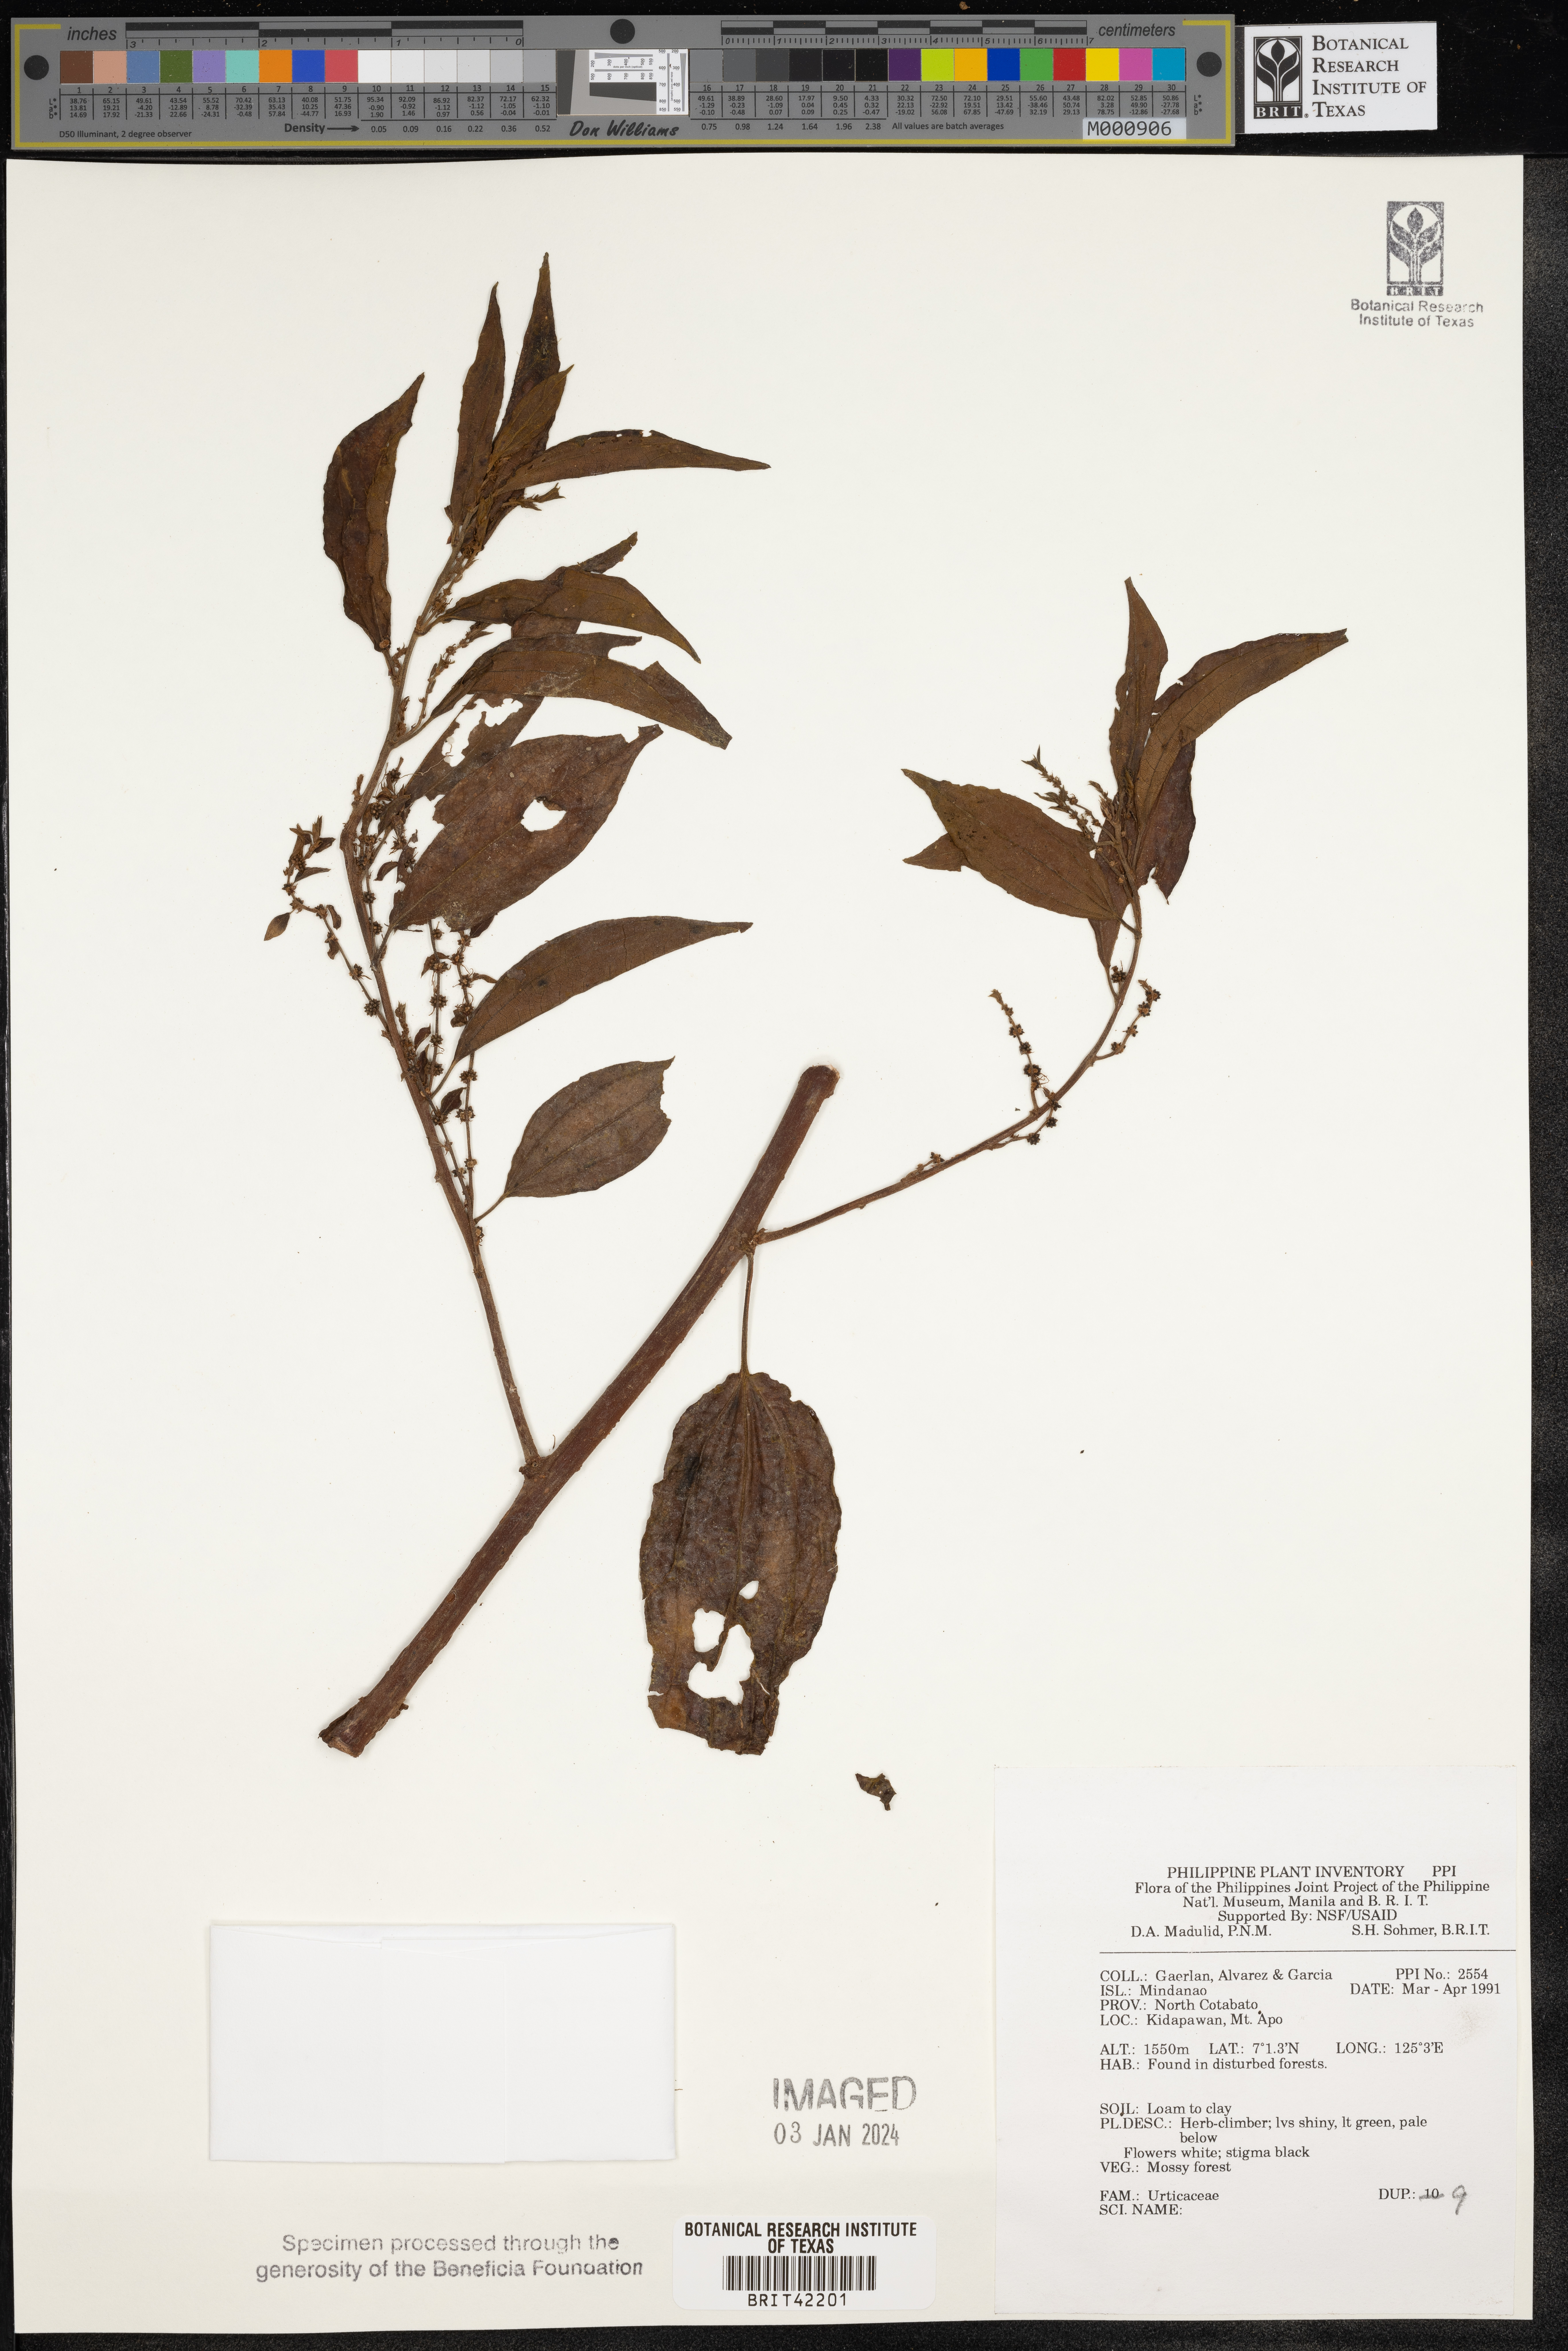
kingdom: Plantae
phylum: Tracheophyta
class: Magnoliopsida
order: Rosales
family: Urticaceae
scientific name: Urticaceae
